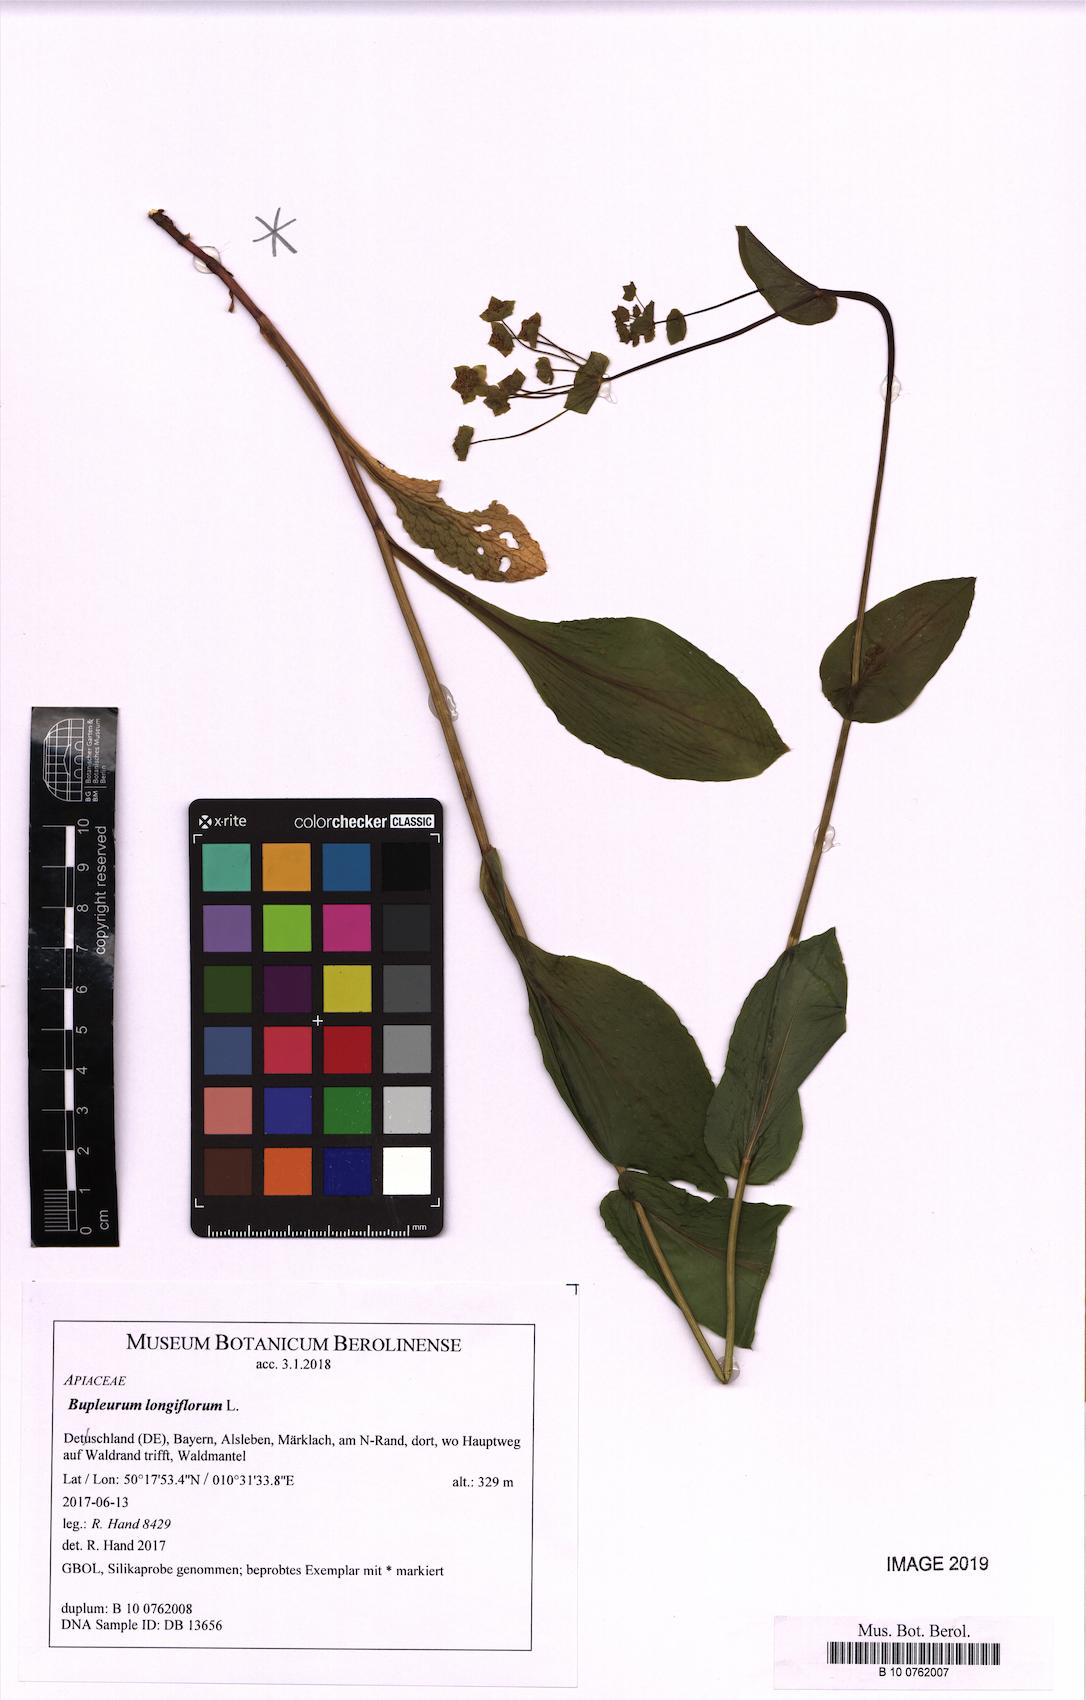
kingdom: Plantae
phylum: Tracheophyta
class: Magnoliopsida
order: Apiales
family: Apiaceae
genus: Bupleurum
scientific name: Bupleurum longifolium
